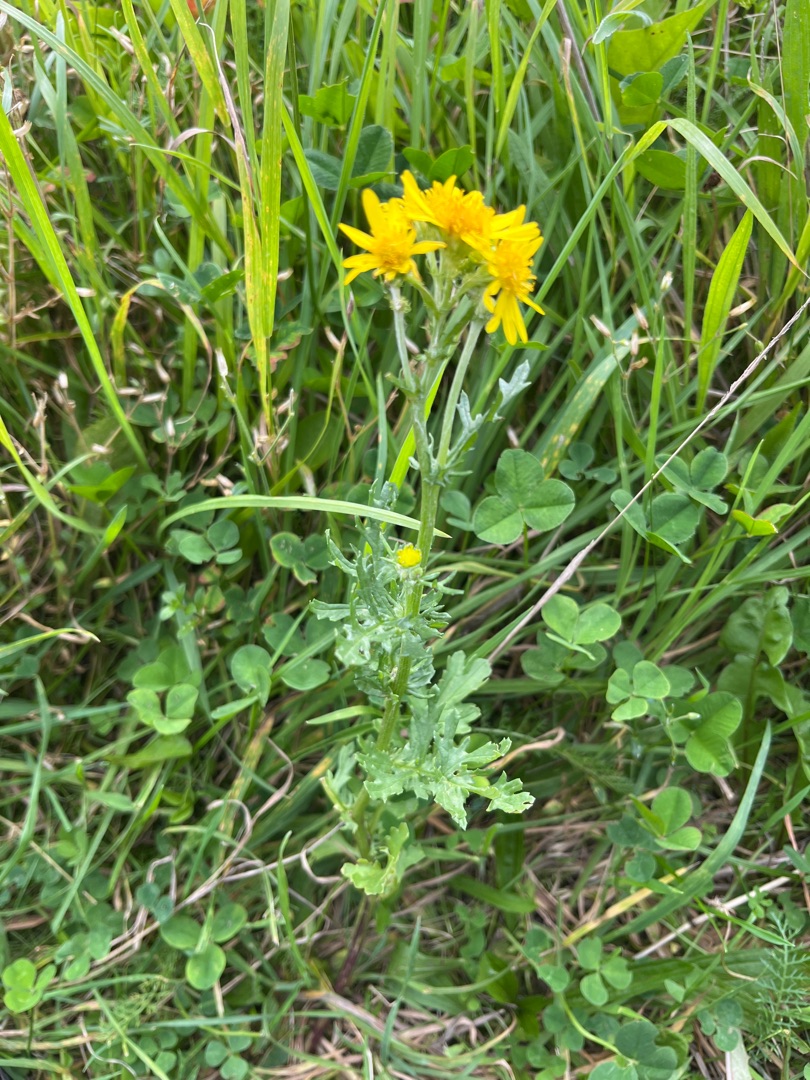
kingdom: Plantae
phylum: Tracheophyta
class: Magnoliopsida
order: Asterales
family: Asteraceae
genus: Jacobaea
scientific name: Jacobaea vulgaris
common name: Eng-brandbæger
